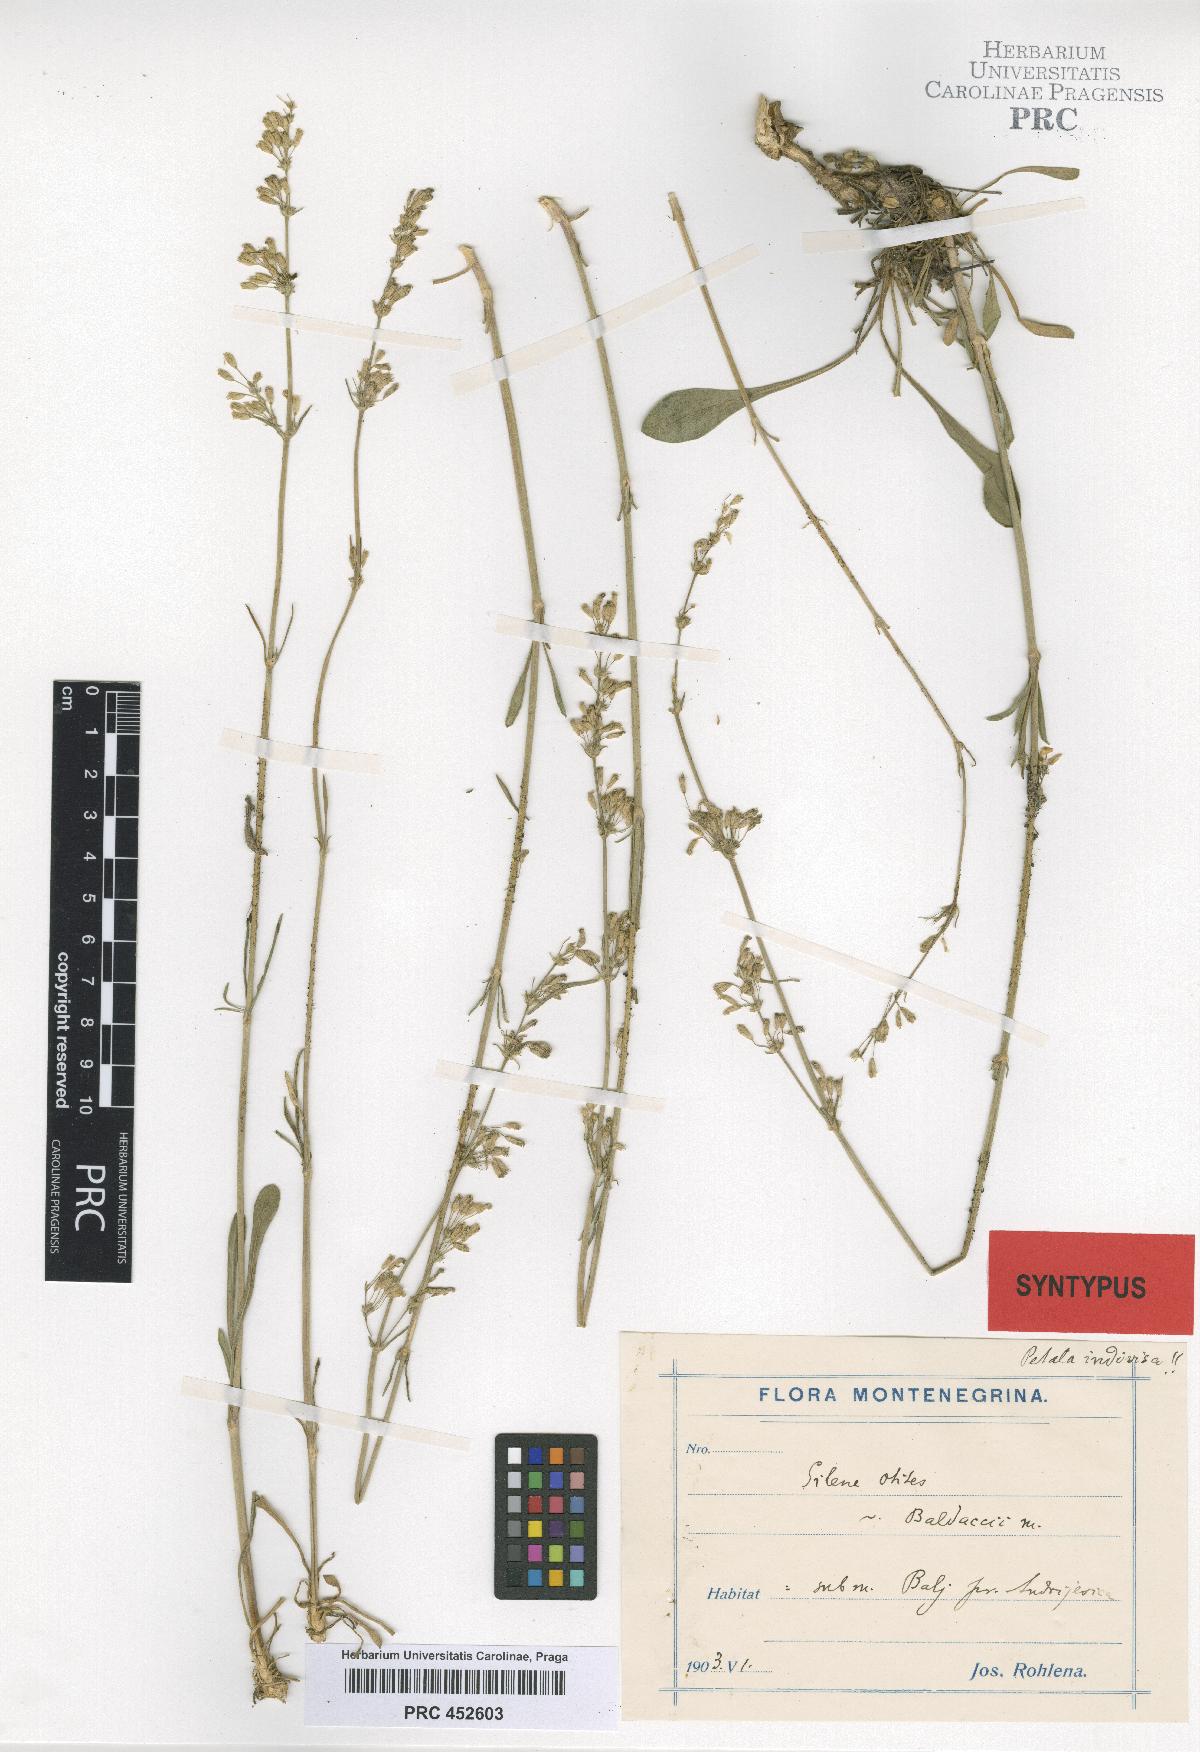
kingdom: Plantae
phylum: Tracheophyta
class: Magnoliopsida
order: Caryophyllales
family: Caryophyllaceae
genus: Silene
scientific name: Silene otites
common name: Spanish catchfly
